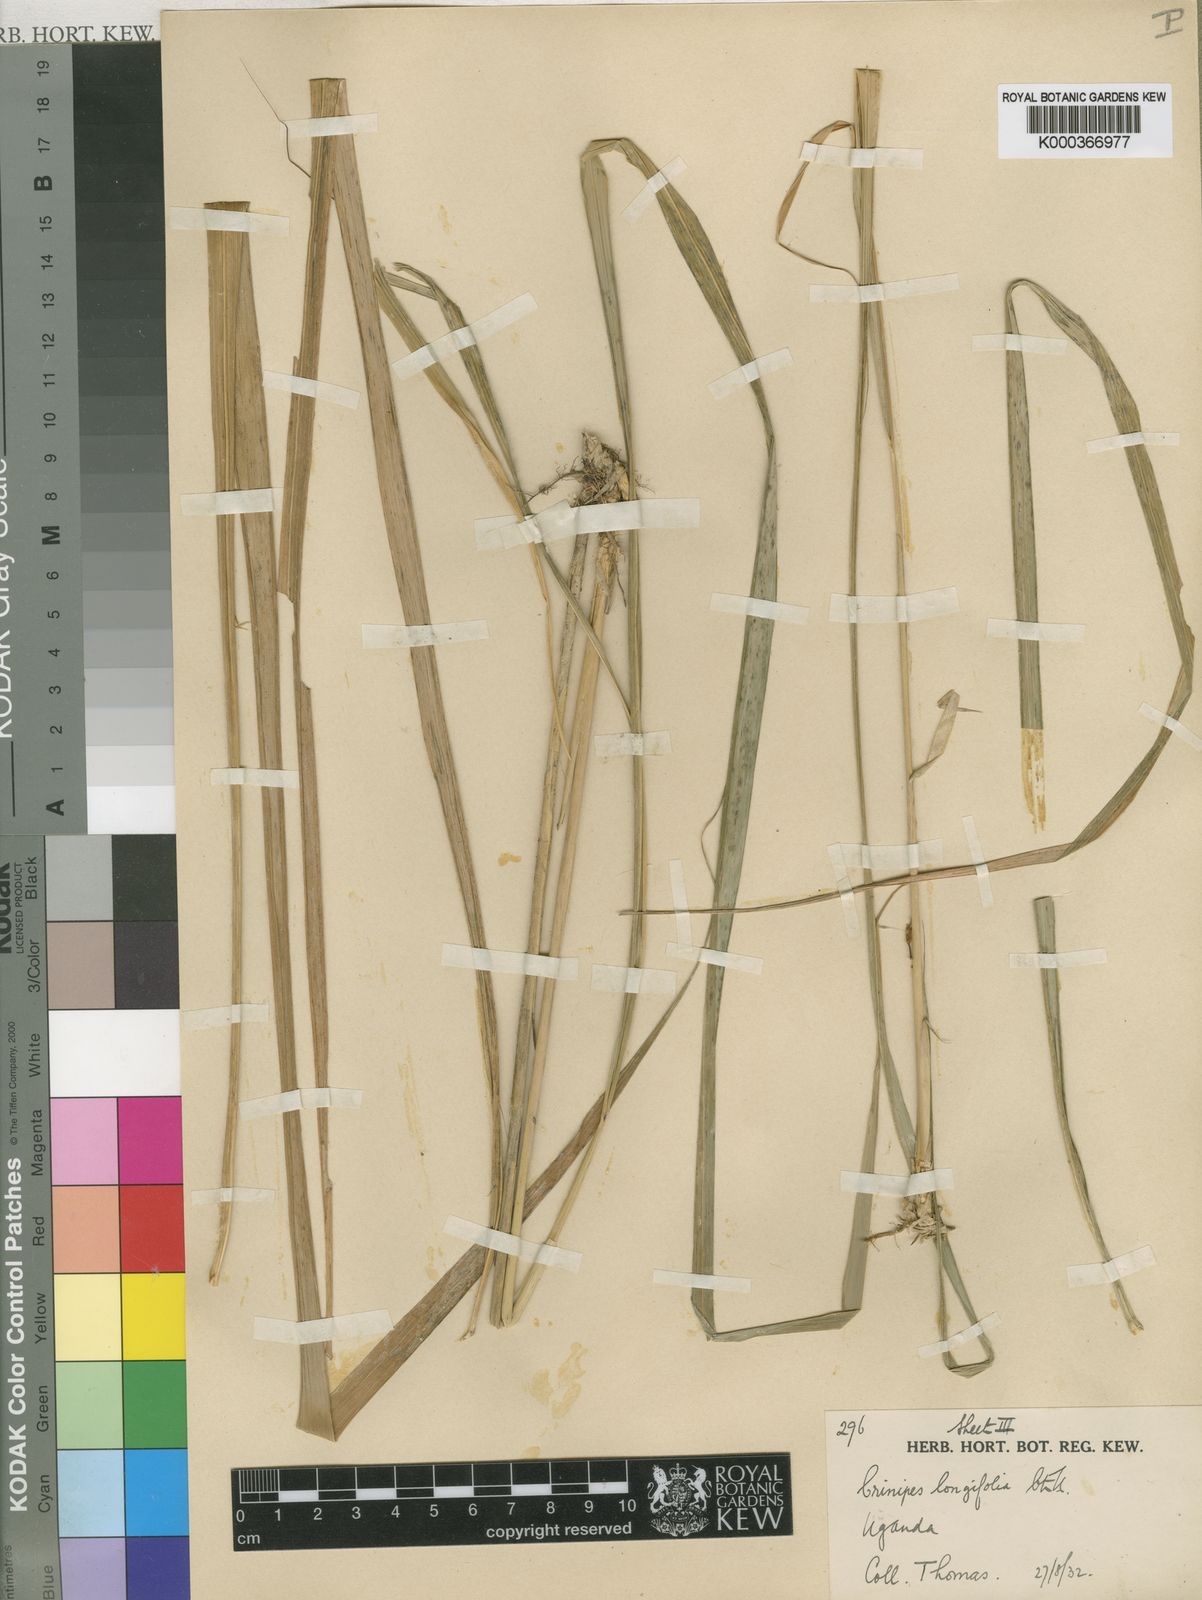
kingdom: Plantae
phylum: Tracheophyta
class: Liliopsida
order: Poales
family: Poaceae
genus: Crinipes
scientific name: Crinipes longifolius
